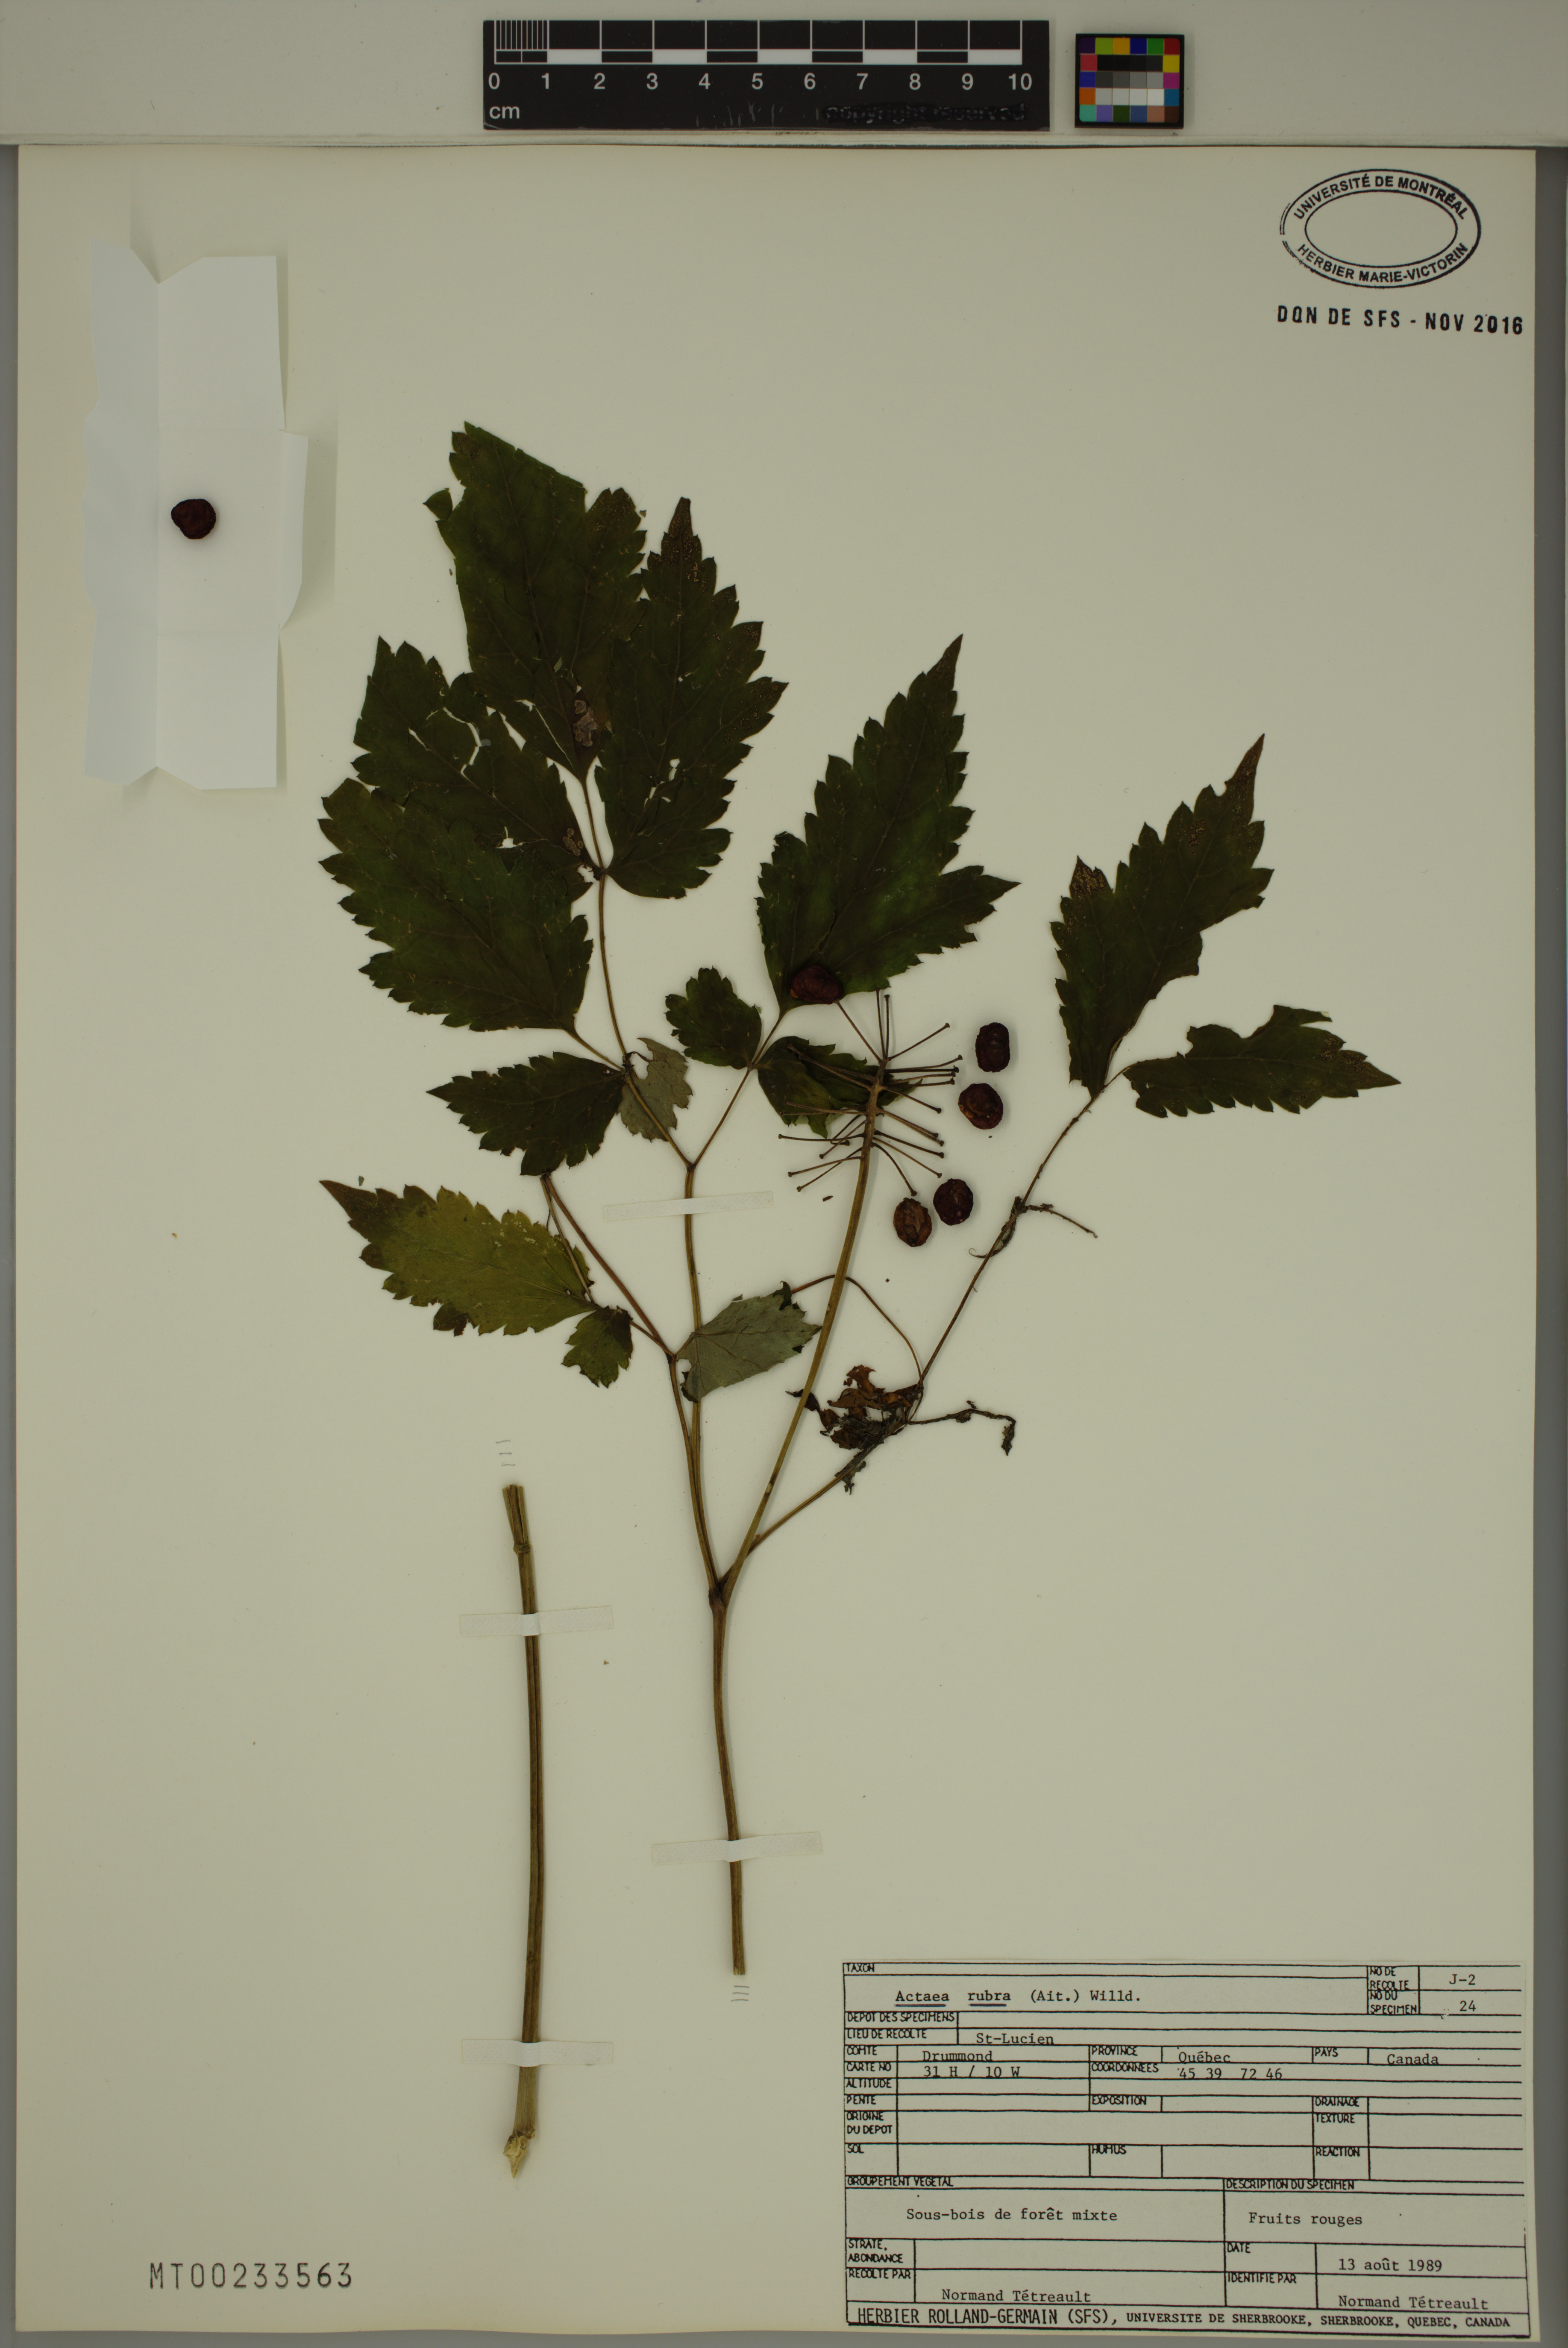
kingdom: Plantae
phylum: Tracheophyta
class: Magnoliopsida
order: Ranunculales
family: Ranunculaceae
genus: Actaea
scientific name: Actaea rubra
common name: Red baneberry
